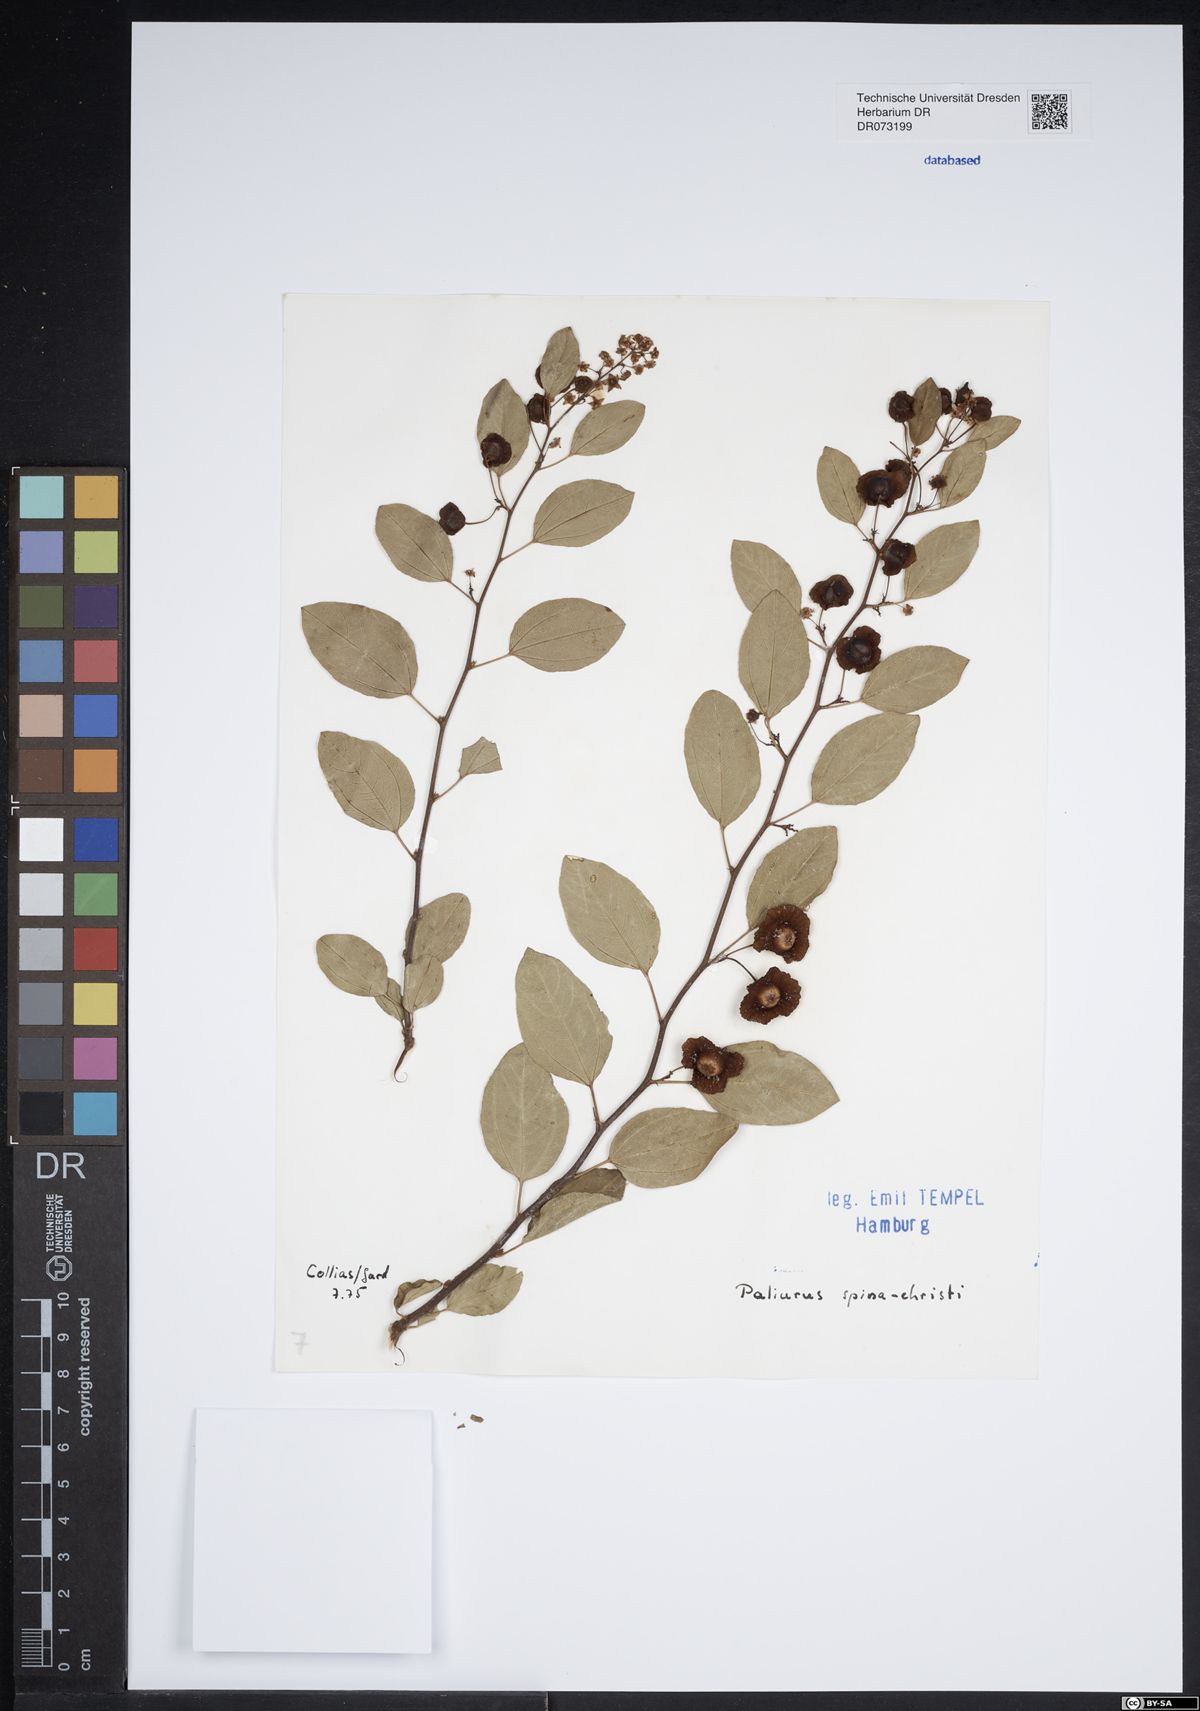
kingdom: Plantae
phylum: Tracheophyta
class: Magnoliopsida
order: Rosales
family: Rhamnaceae
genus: Paliurus
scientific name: Paliurus spina-christi
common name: Jeruselem thorn
